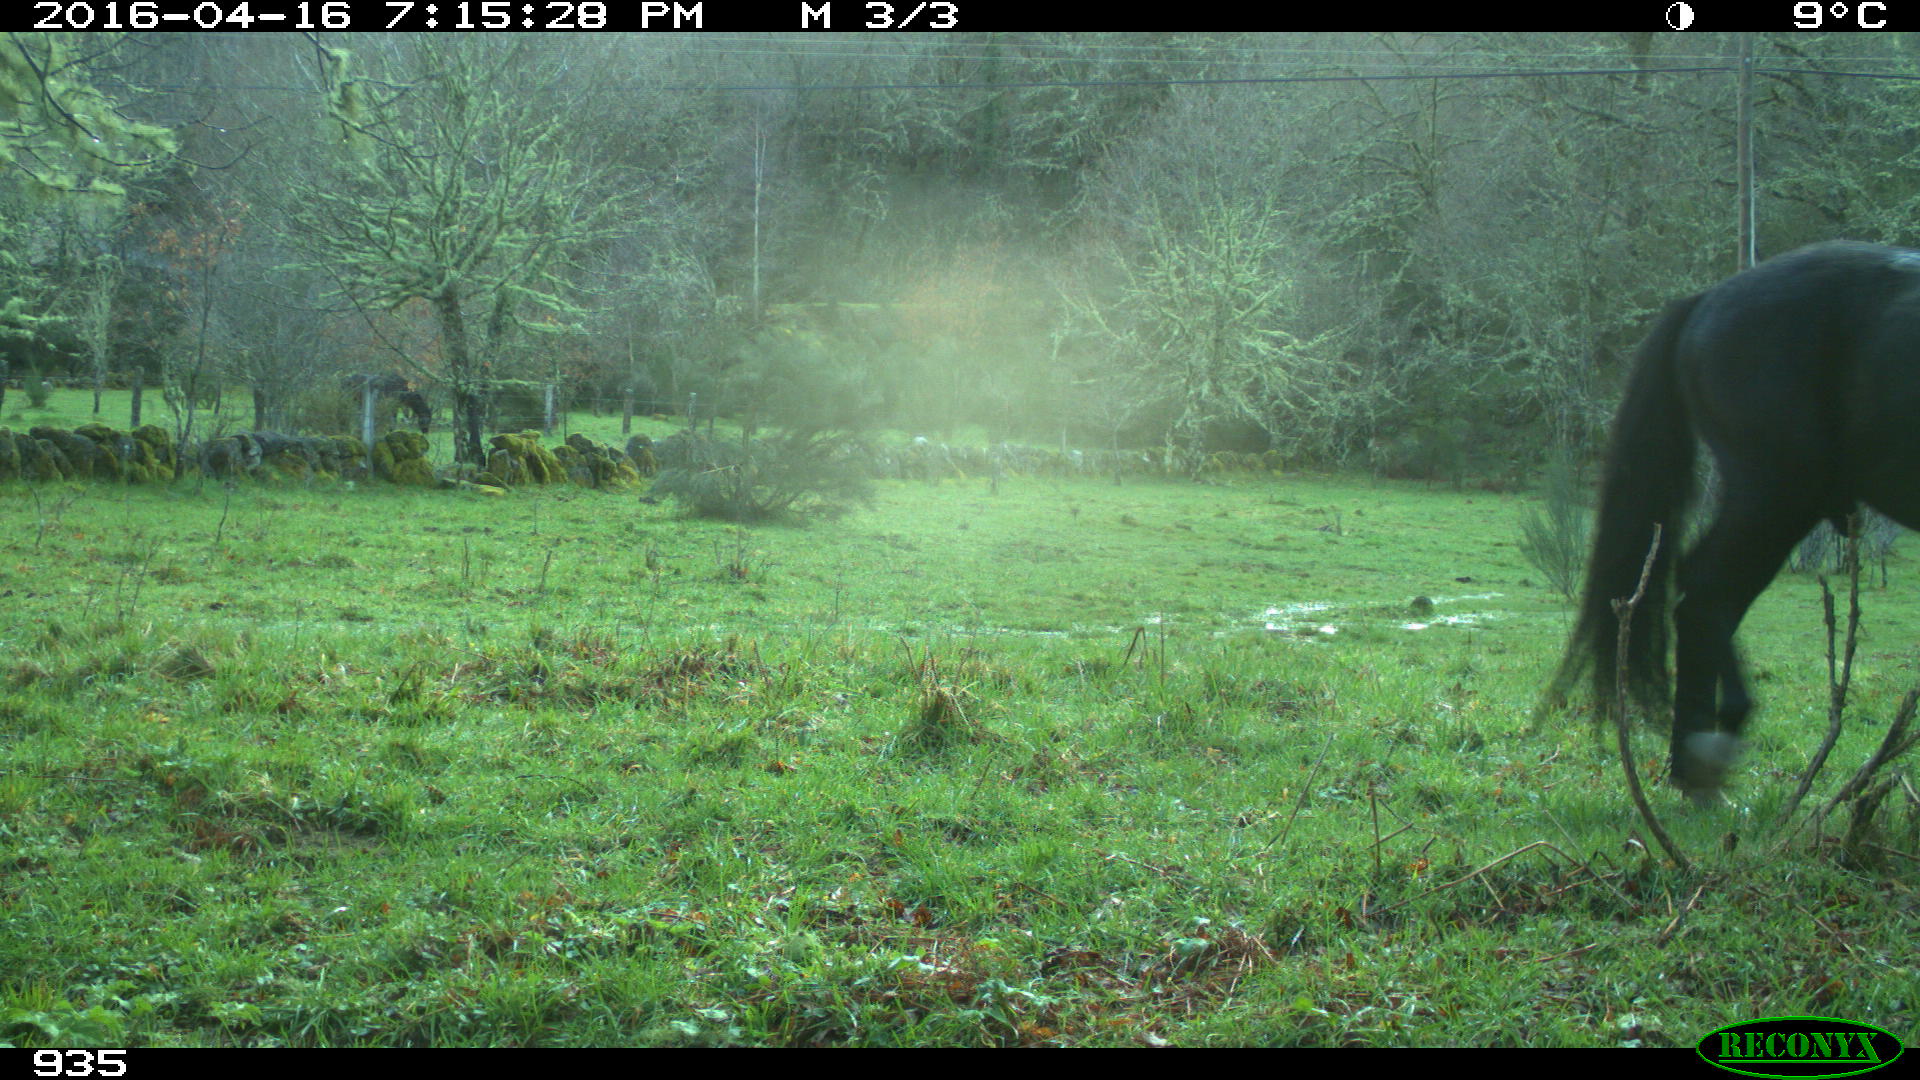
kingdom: Animalia
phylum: Chordata
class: Mammalia
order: Perissodactyla
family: Equidae
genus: Equus
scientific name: Equus caballus
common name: Horse
